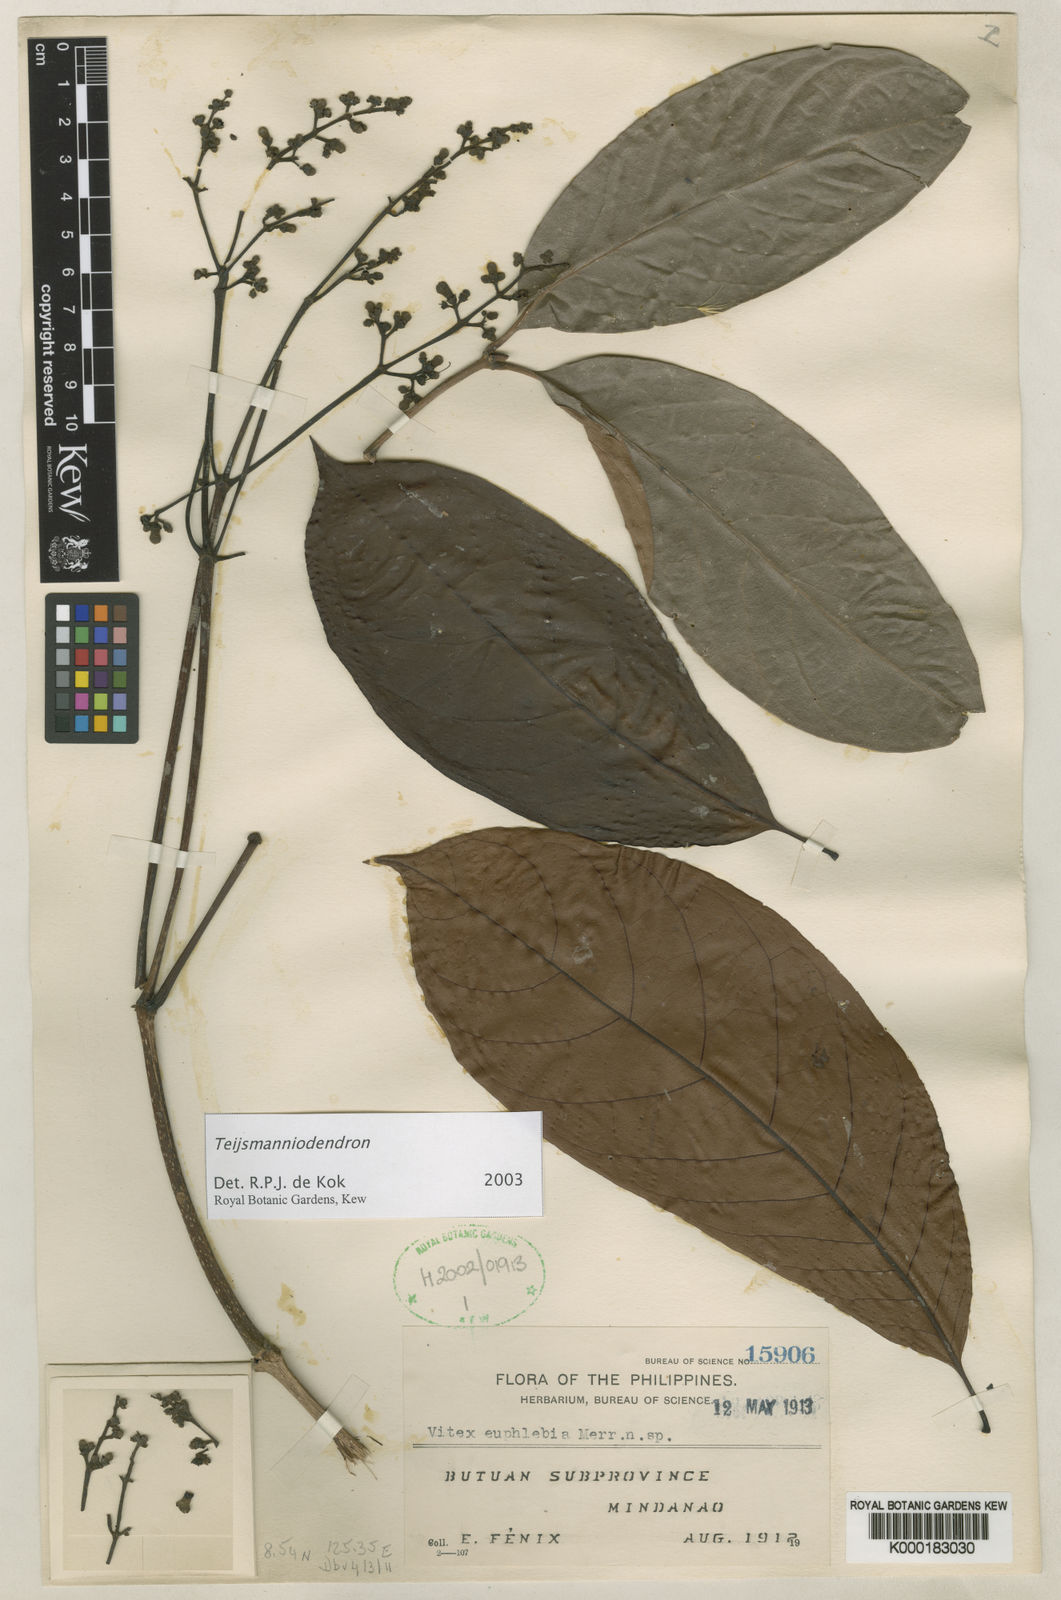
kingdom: Plantae
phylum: Tracheophyta
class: Magnoliopsida
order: Lamiales
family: Lamiaceae
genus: Vitex
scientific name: Vitex
